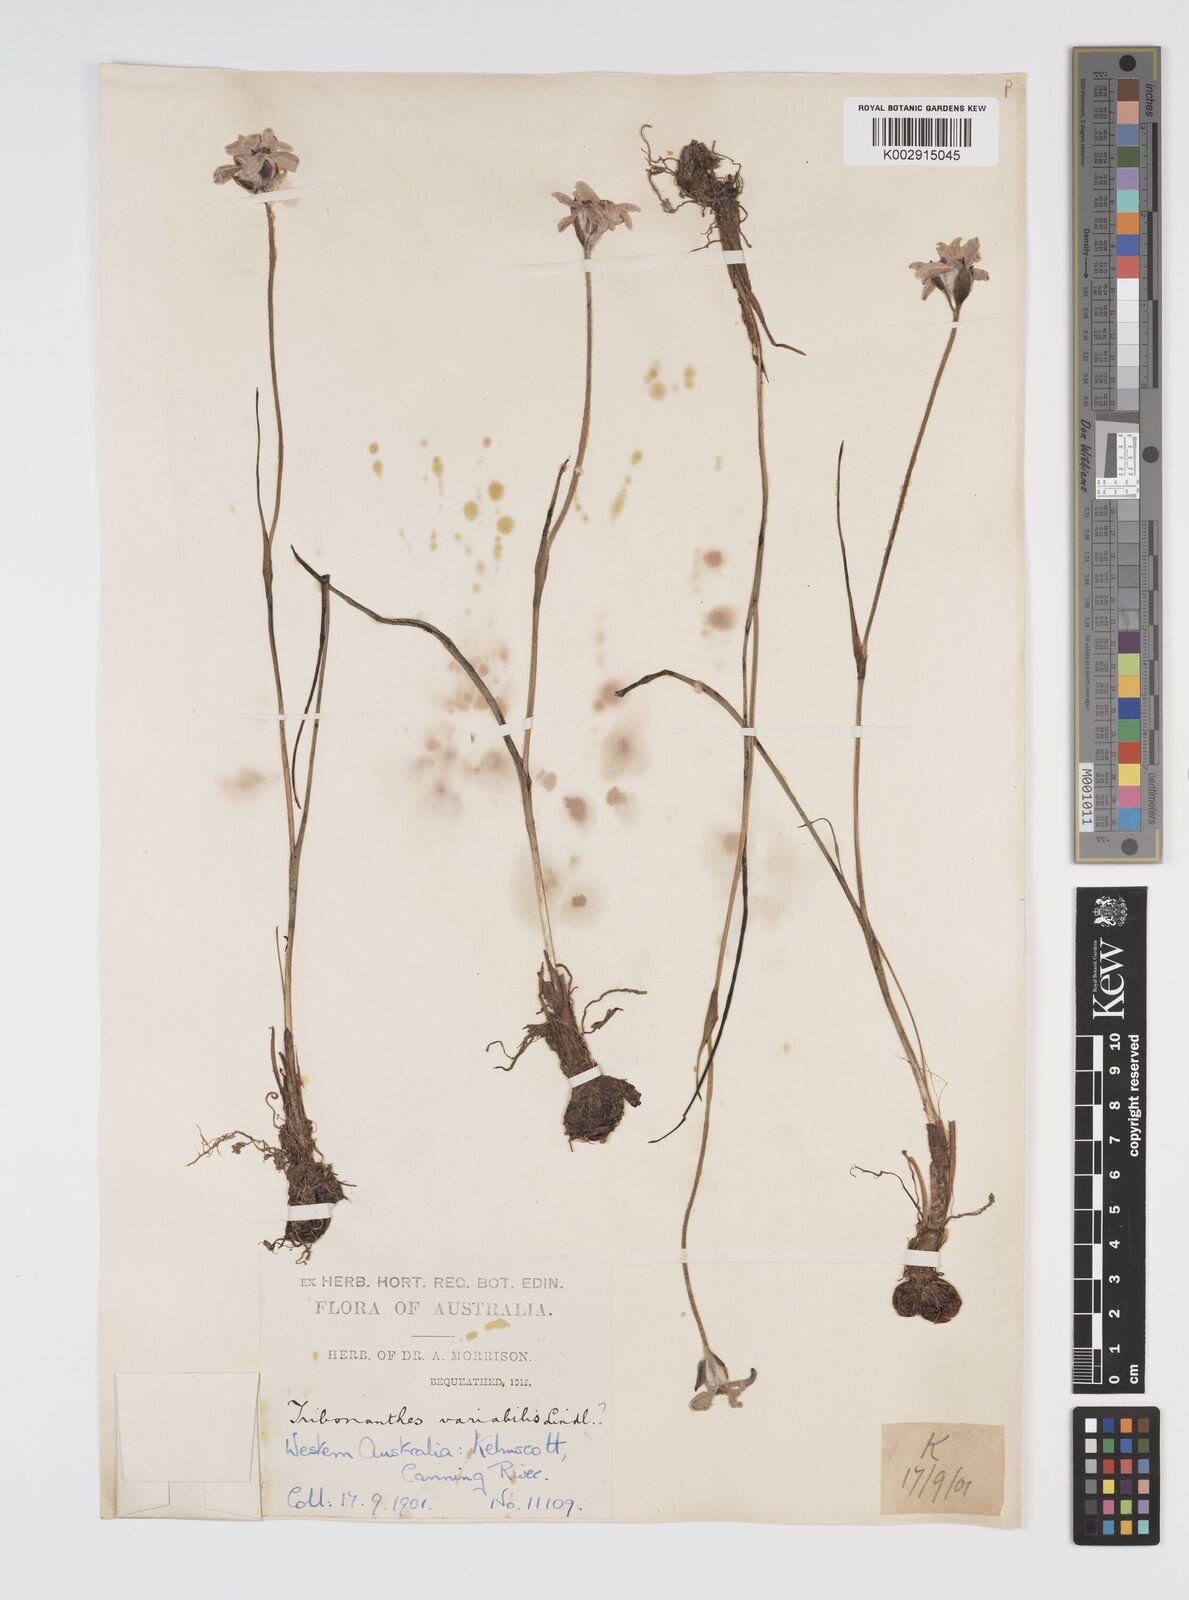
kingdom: Plantae
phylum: Tracheophyta
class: Liliopsida
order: Commelinales
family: Haemodoraceae
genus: Tribonanthes
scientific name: Tribonanthes australis
